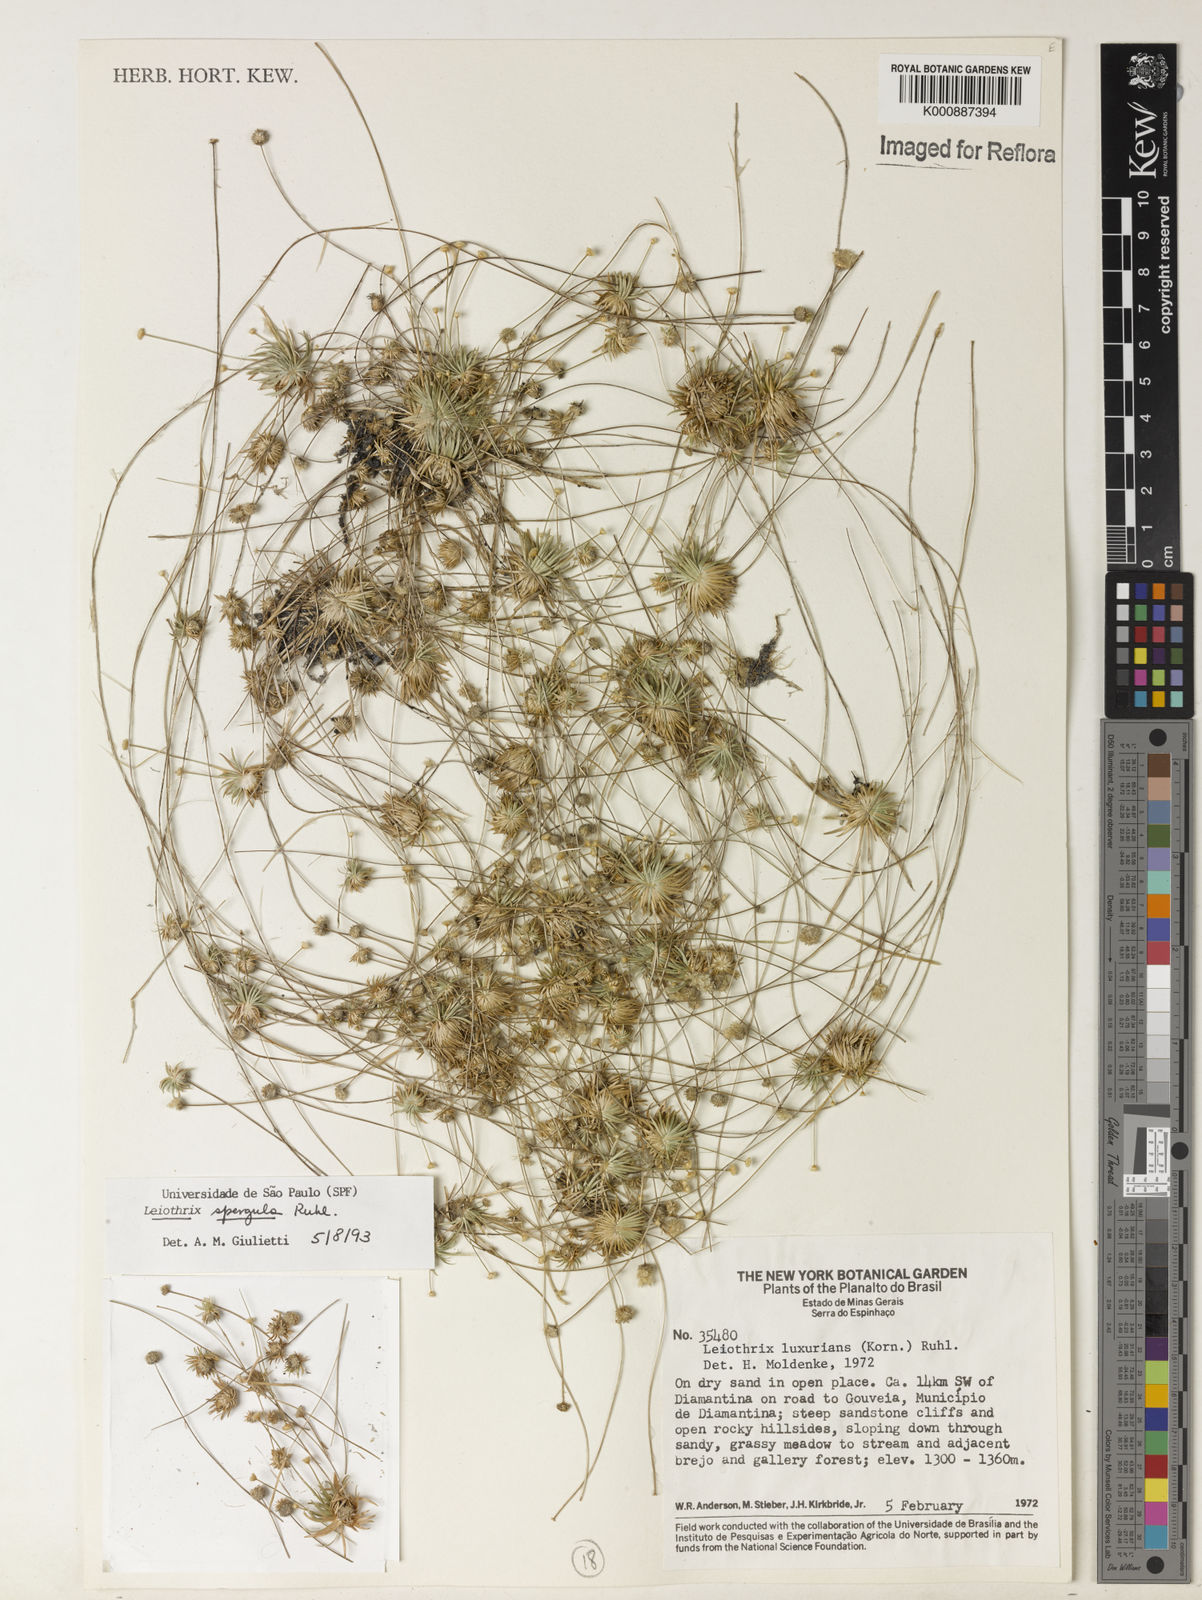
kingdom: Plantae
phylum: Tracheophyta
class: Liliopsida
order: Poales
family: Eriocaulaceae
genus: Leiothrix
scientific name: Leiothrix spergula
